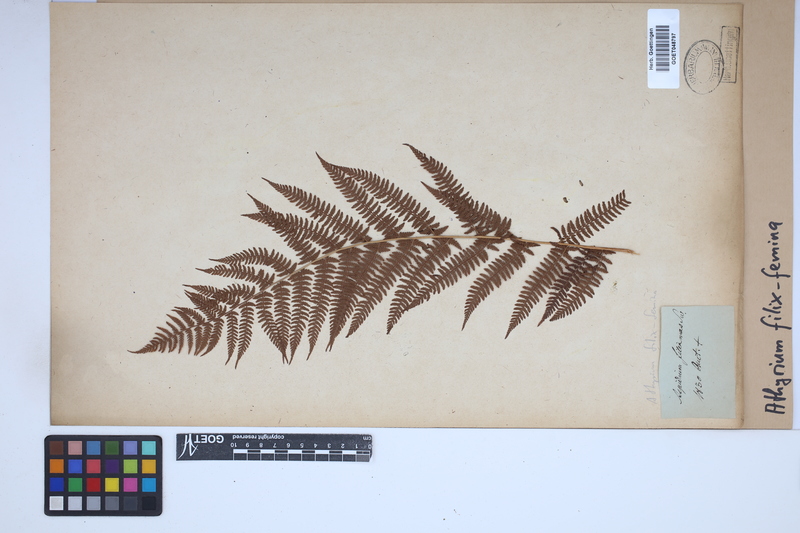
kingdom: Plantae
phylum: Tracheophyta
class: Polypodiopsida
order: Polypodiales
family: Athyriaceae
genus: Athyrium
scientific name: Athyrium filix-femina
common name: Lady fern
